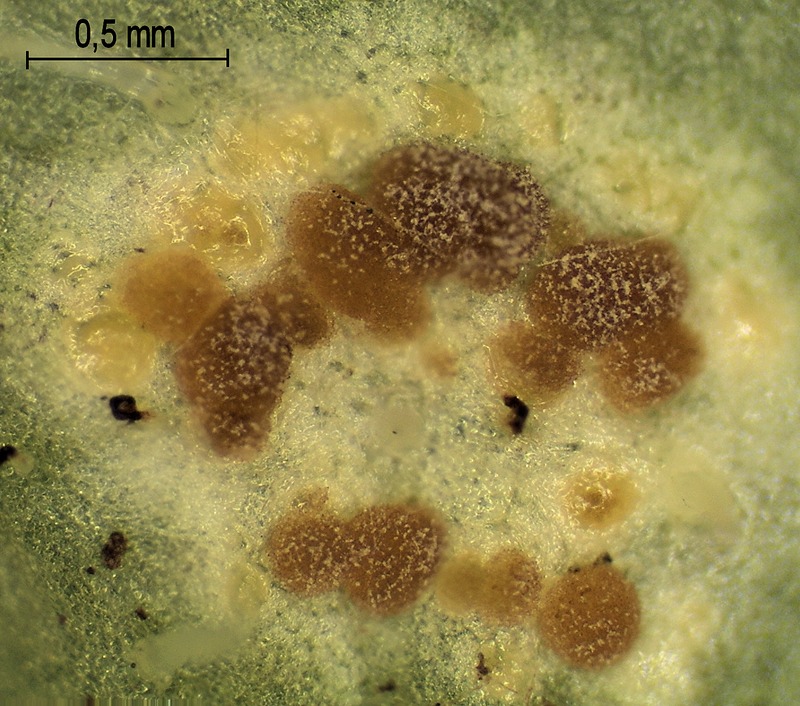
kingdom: Fungi
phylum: Basidiomycota
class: Pucciniomycetes
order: Pucciniales
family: Pucciniaceae
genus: Puccinia
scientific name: Puccinia chrysosplenii
